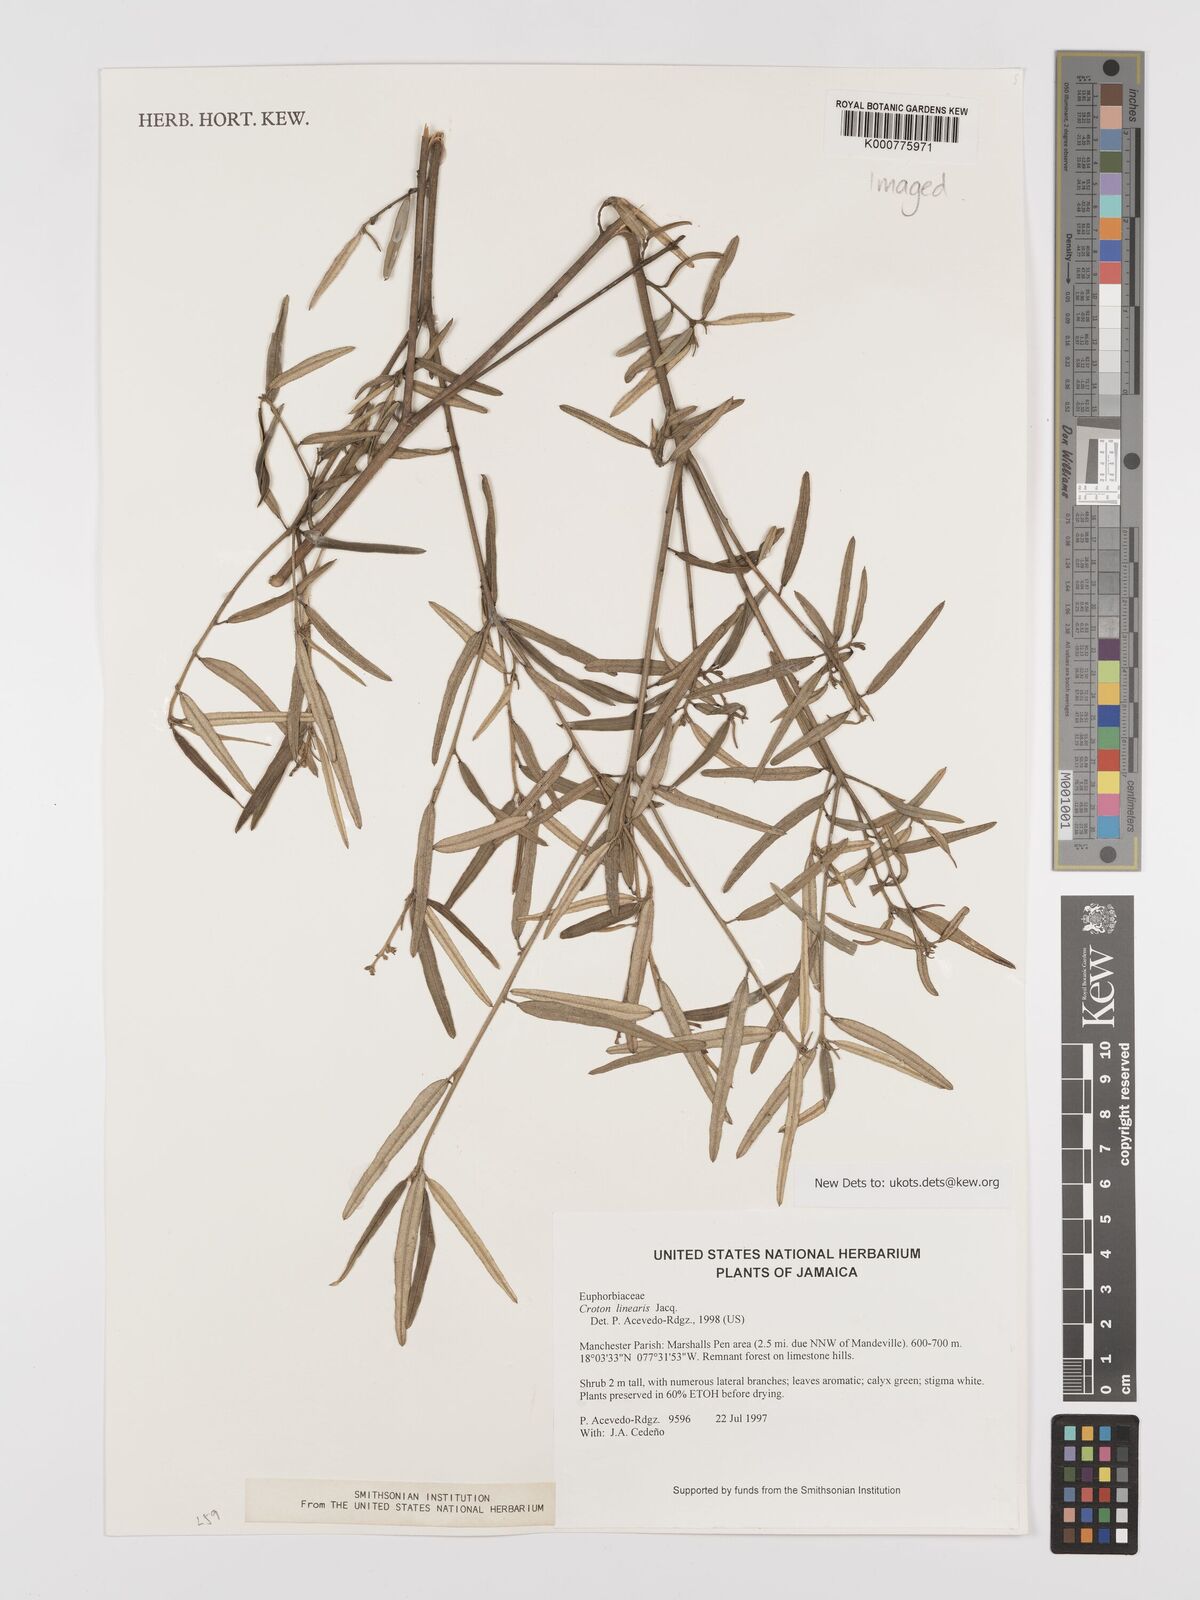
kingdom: Plantae
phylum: Tracheophyta
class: Magnoliopsida
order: Malpighiales
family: Euphorbiaceae
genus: Croton
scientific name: Croton linearis
